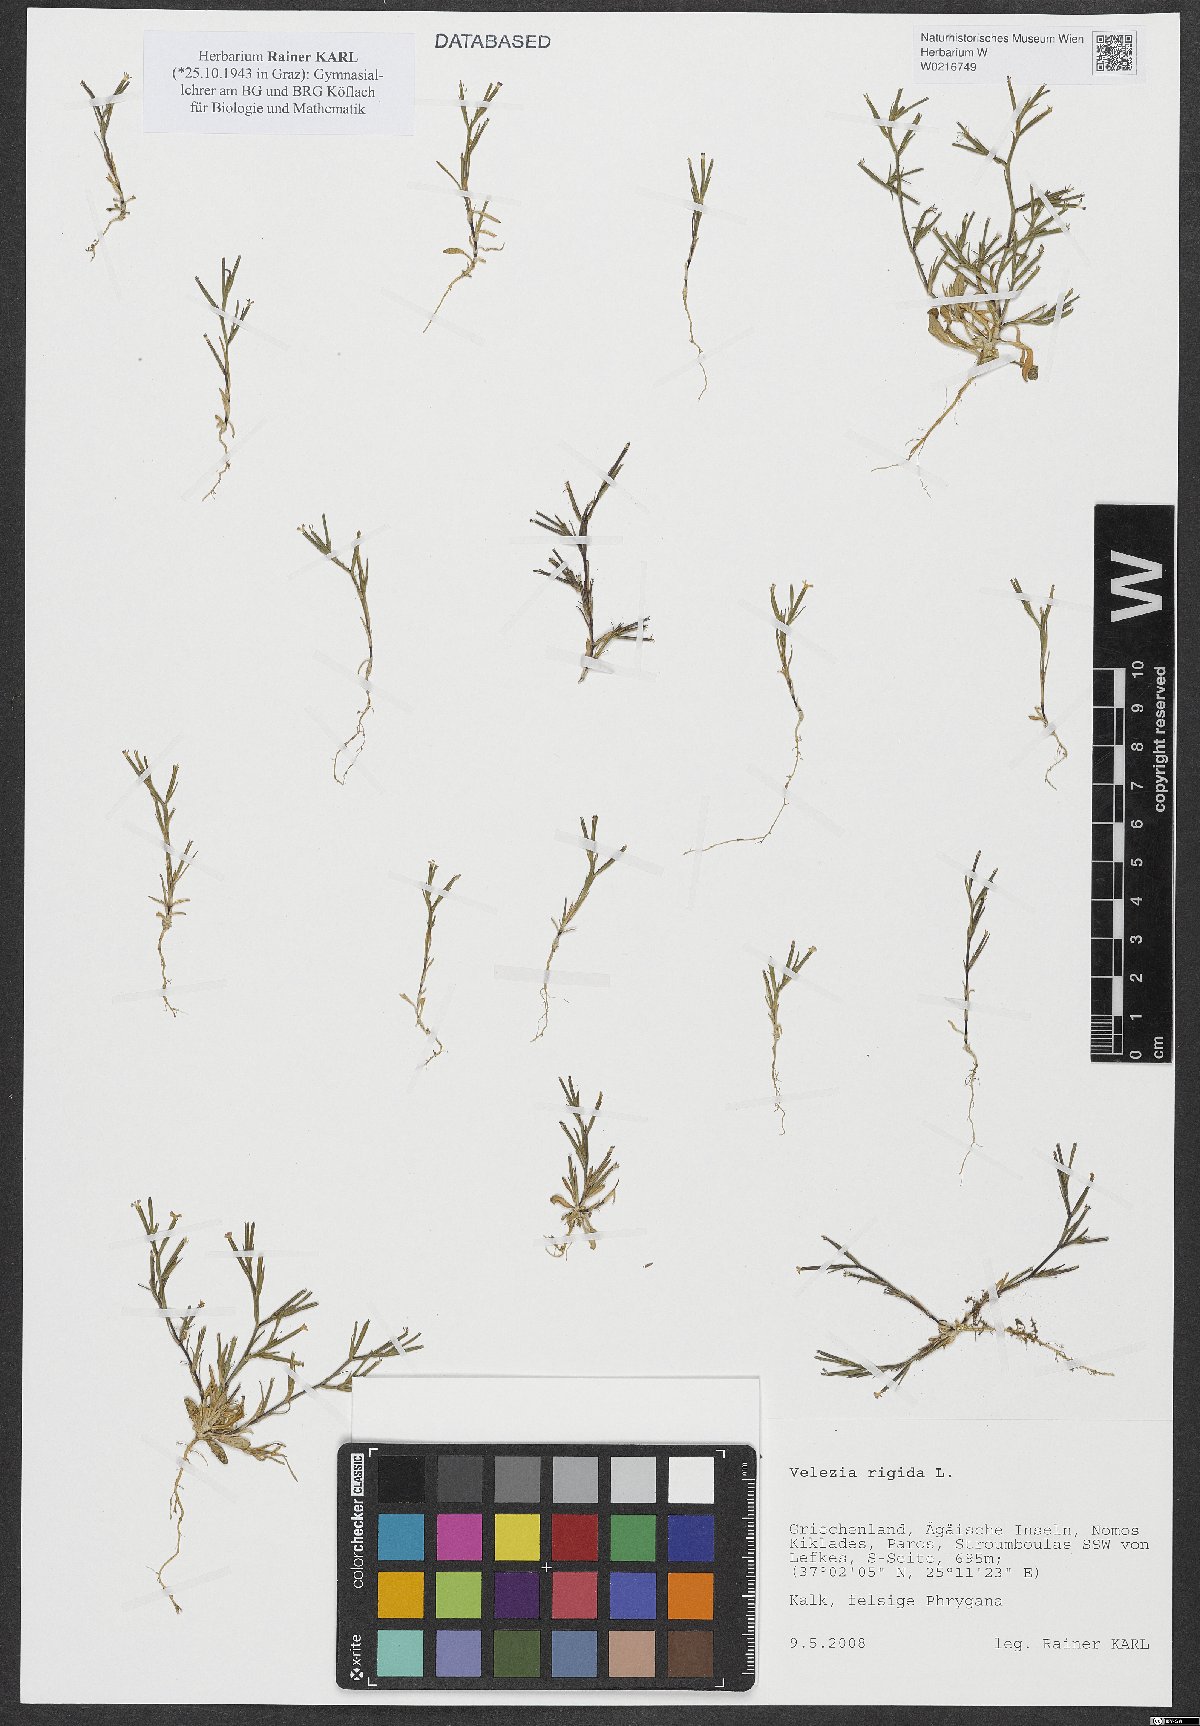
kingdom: Plantae
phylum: Tracheophyta
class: Magnoliopsida
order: Caryophyllales
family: Caryophyllaceae
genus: Dianthus
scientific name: Dianthus nudiflorus
